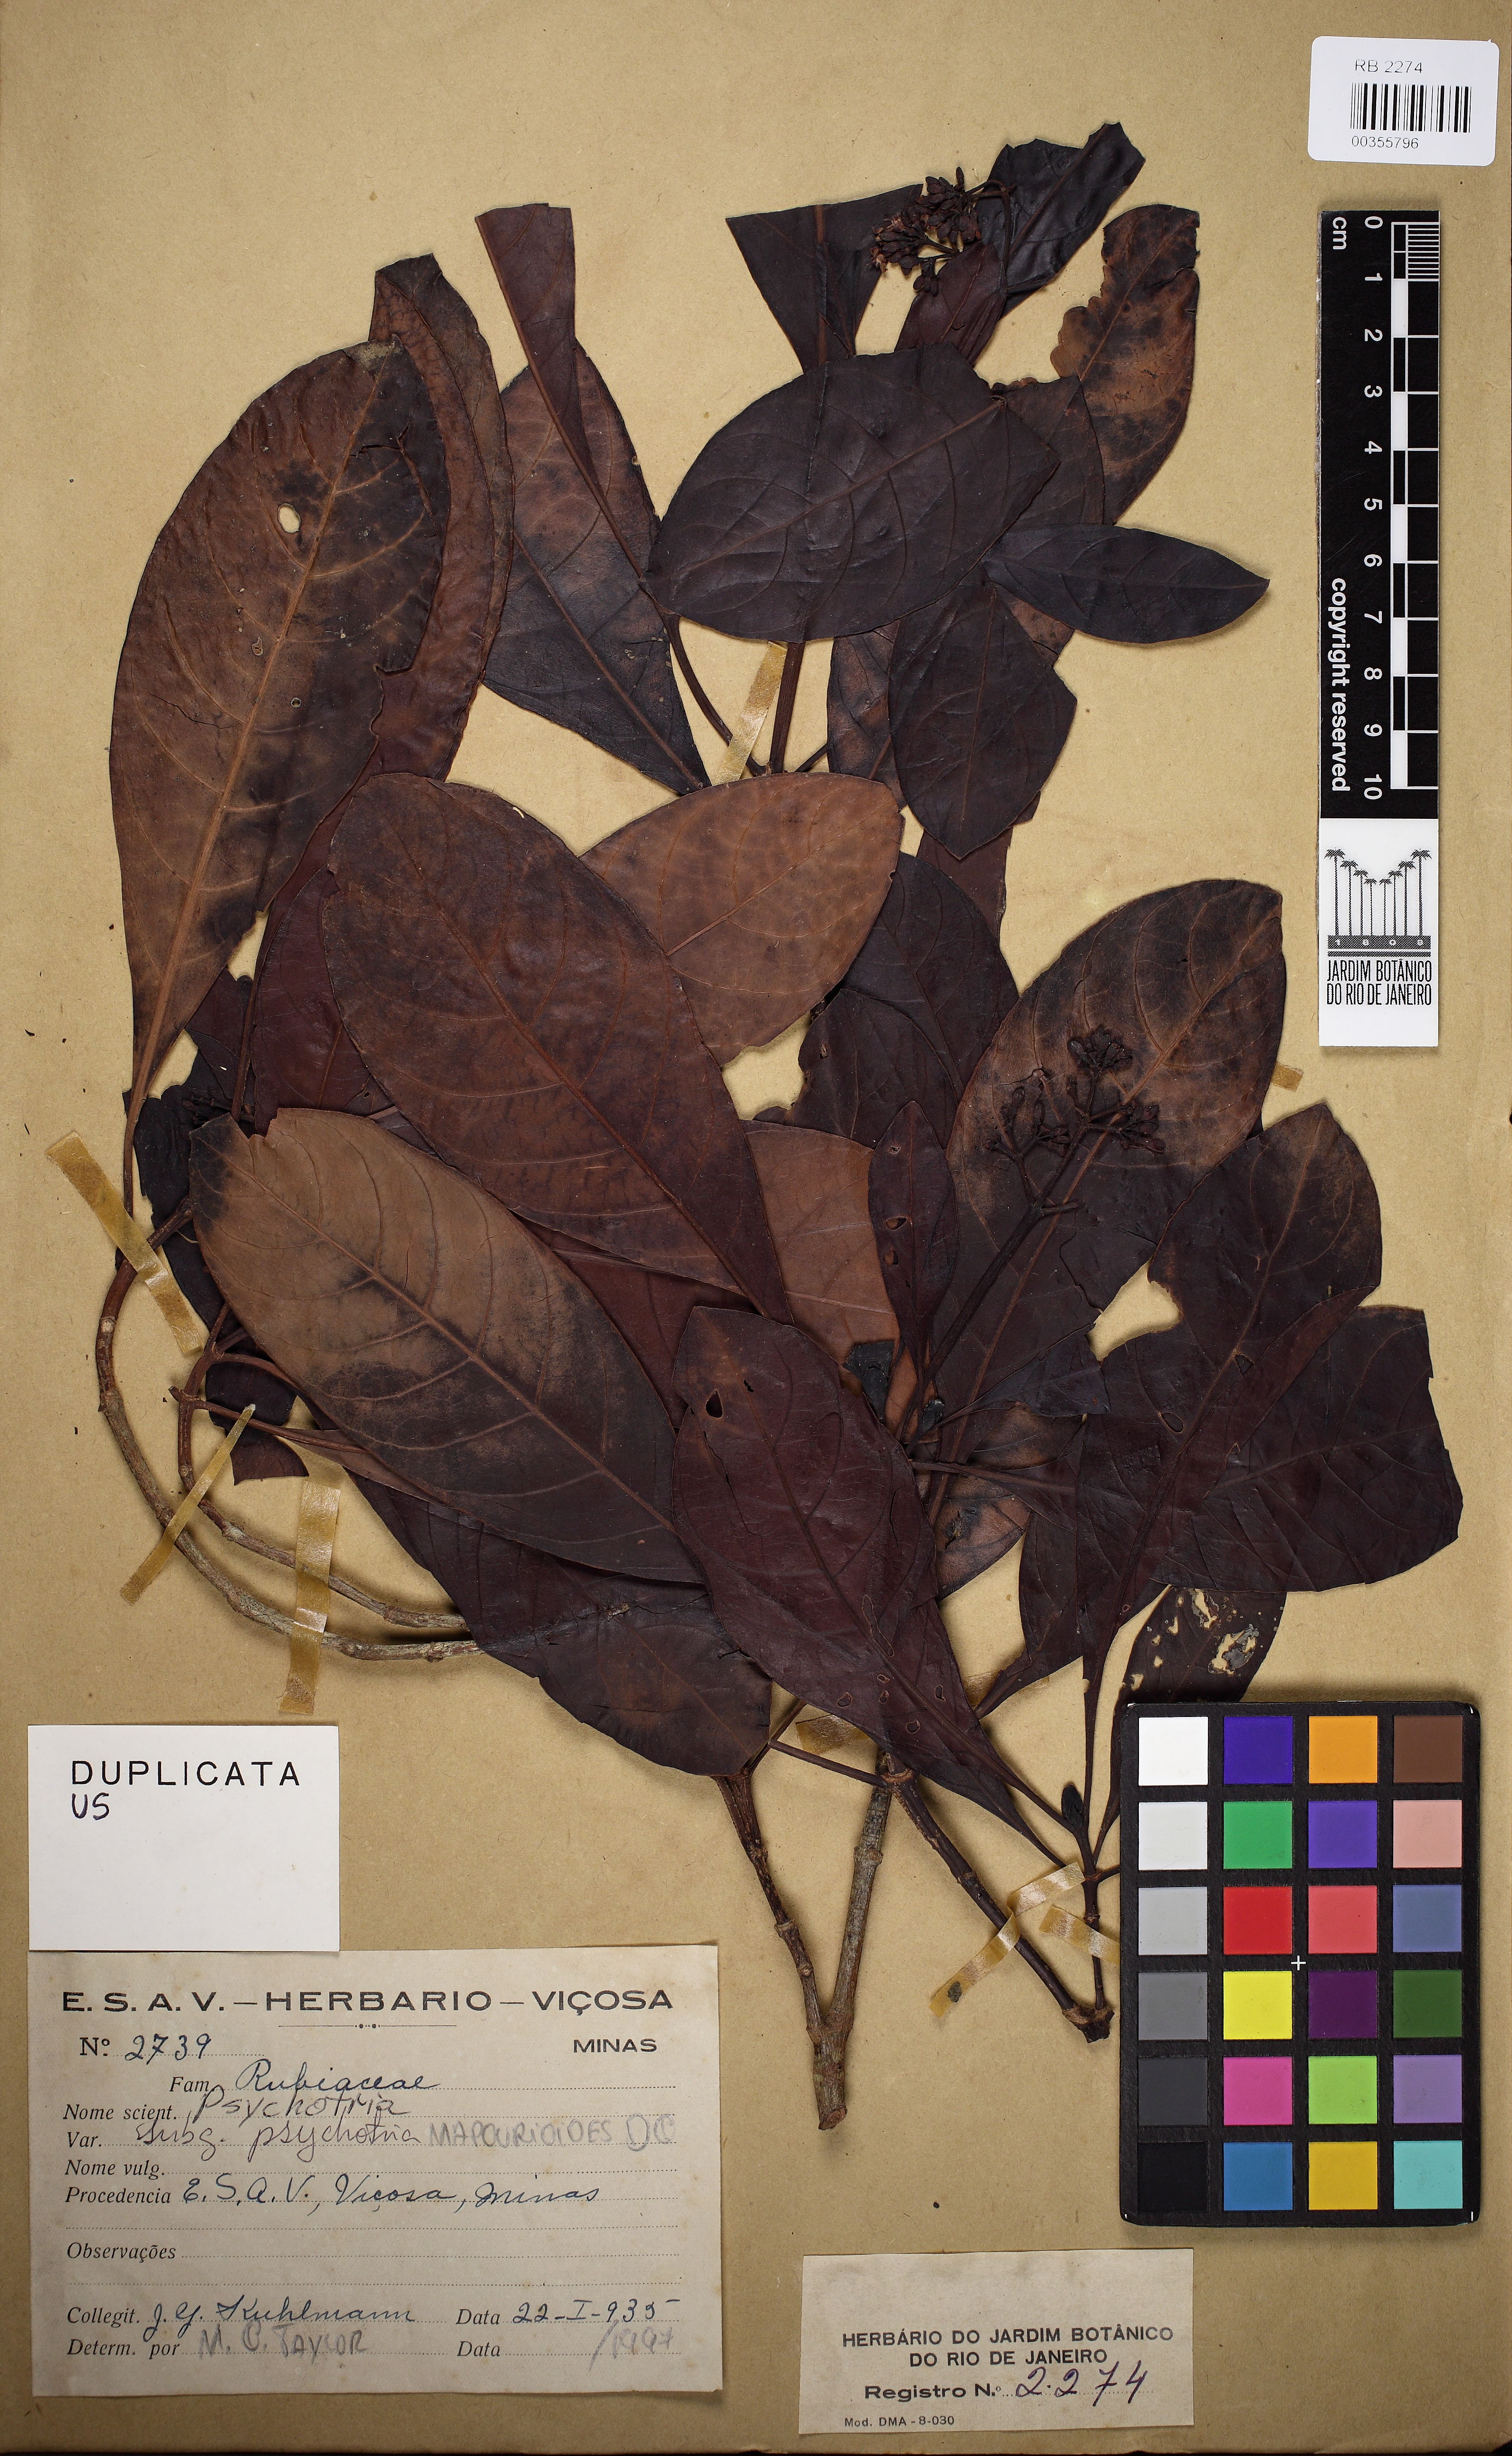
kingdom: Plantae
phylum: Tracheophyta
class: Magnoliopsida
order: Gentianales
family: Rubiaceae
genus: Psychotria
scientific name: Psychotria pedunculosa
